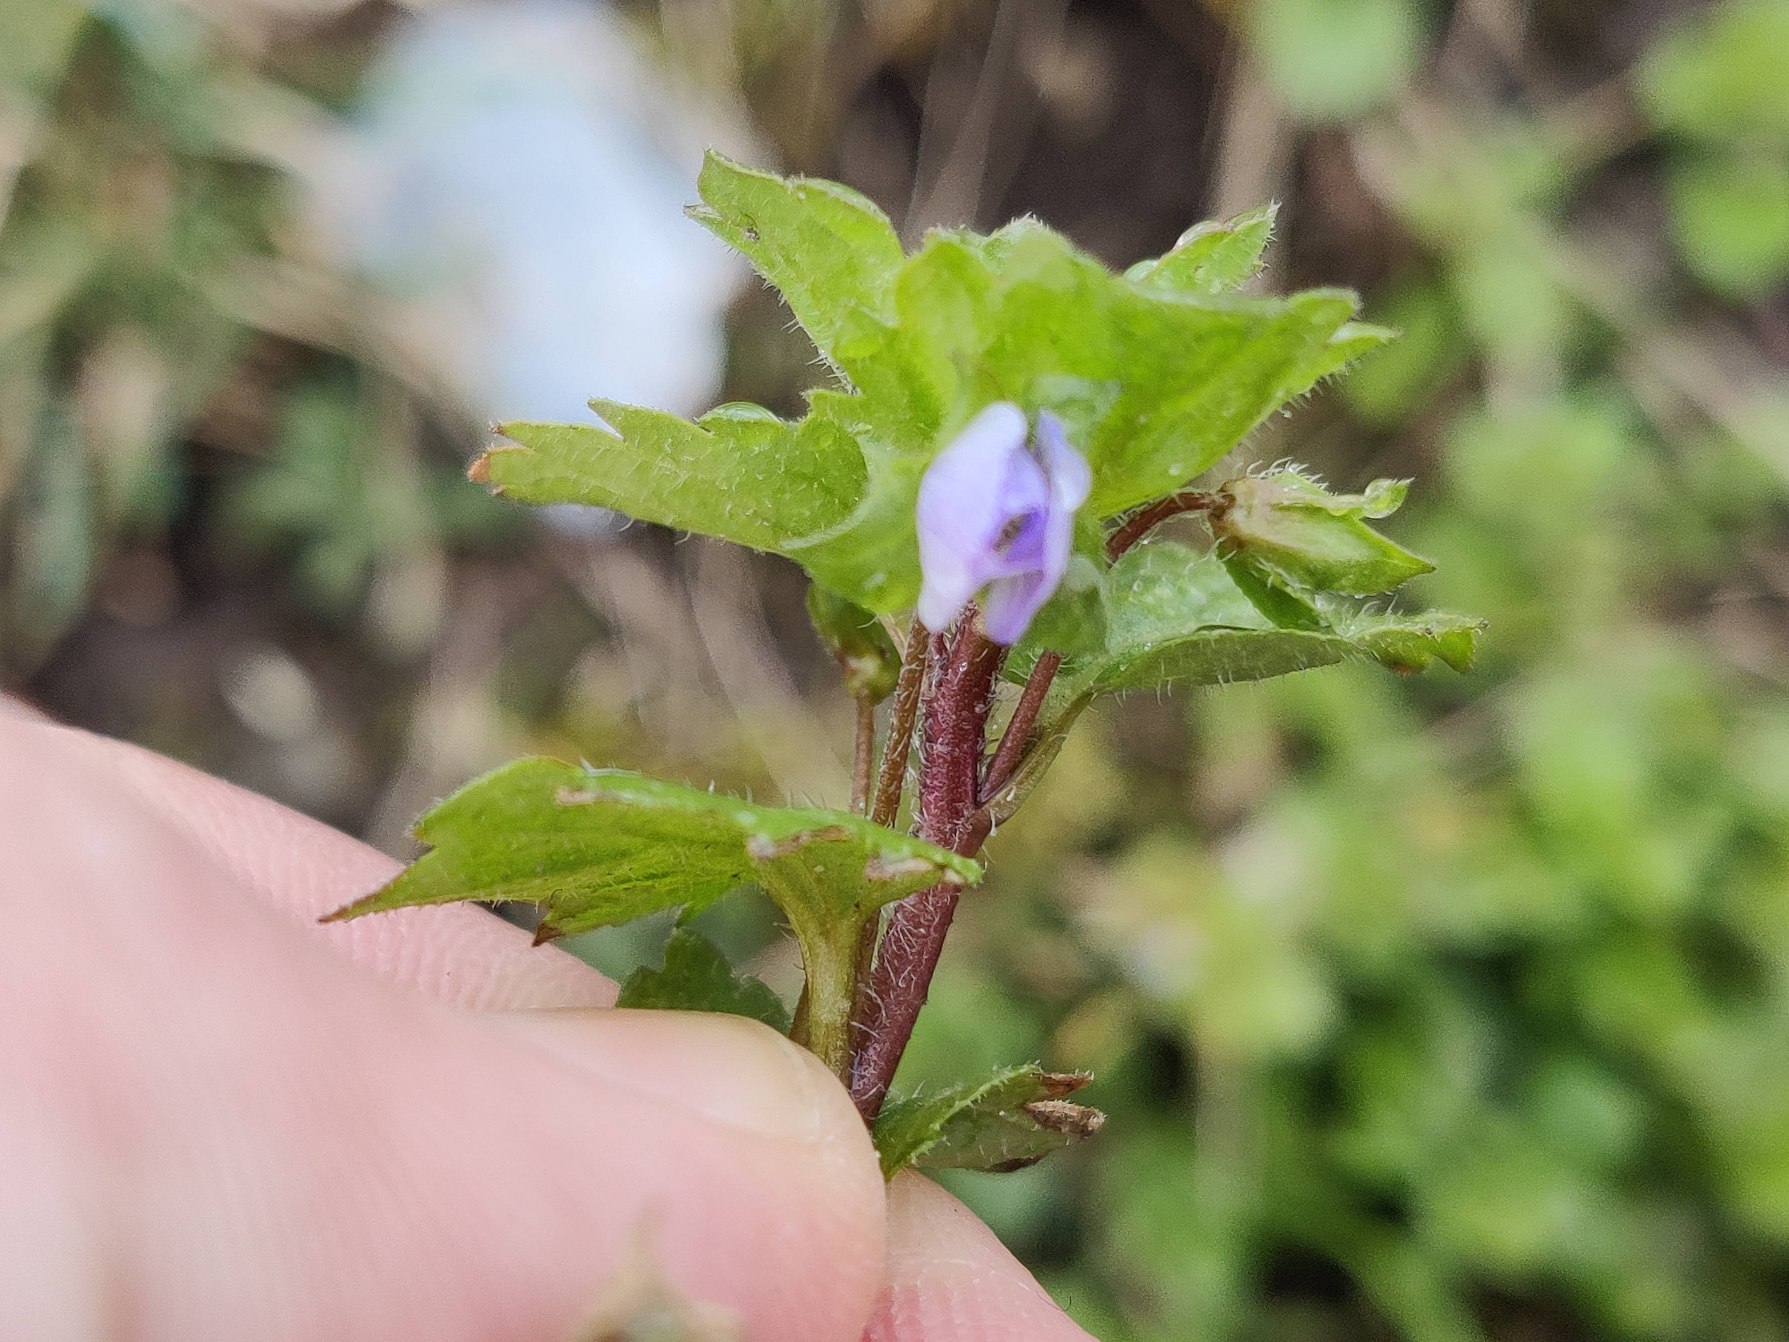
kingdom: Plantae
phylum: Tracheophyta
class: Magnoliopsida
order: Lamiales
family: Plantaginaceae
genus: Veronica
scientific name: Veronica persica
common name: Storkronet ærenpris
